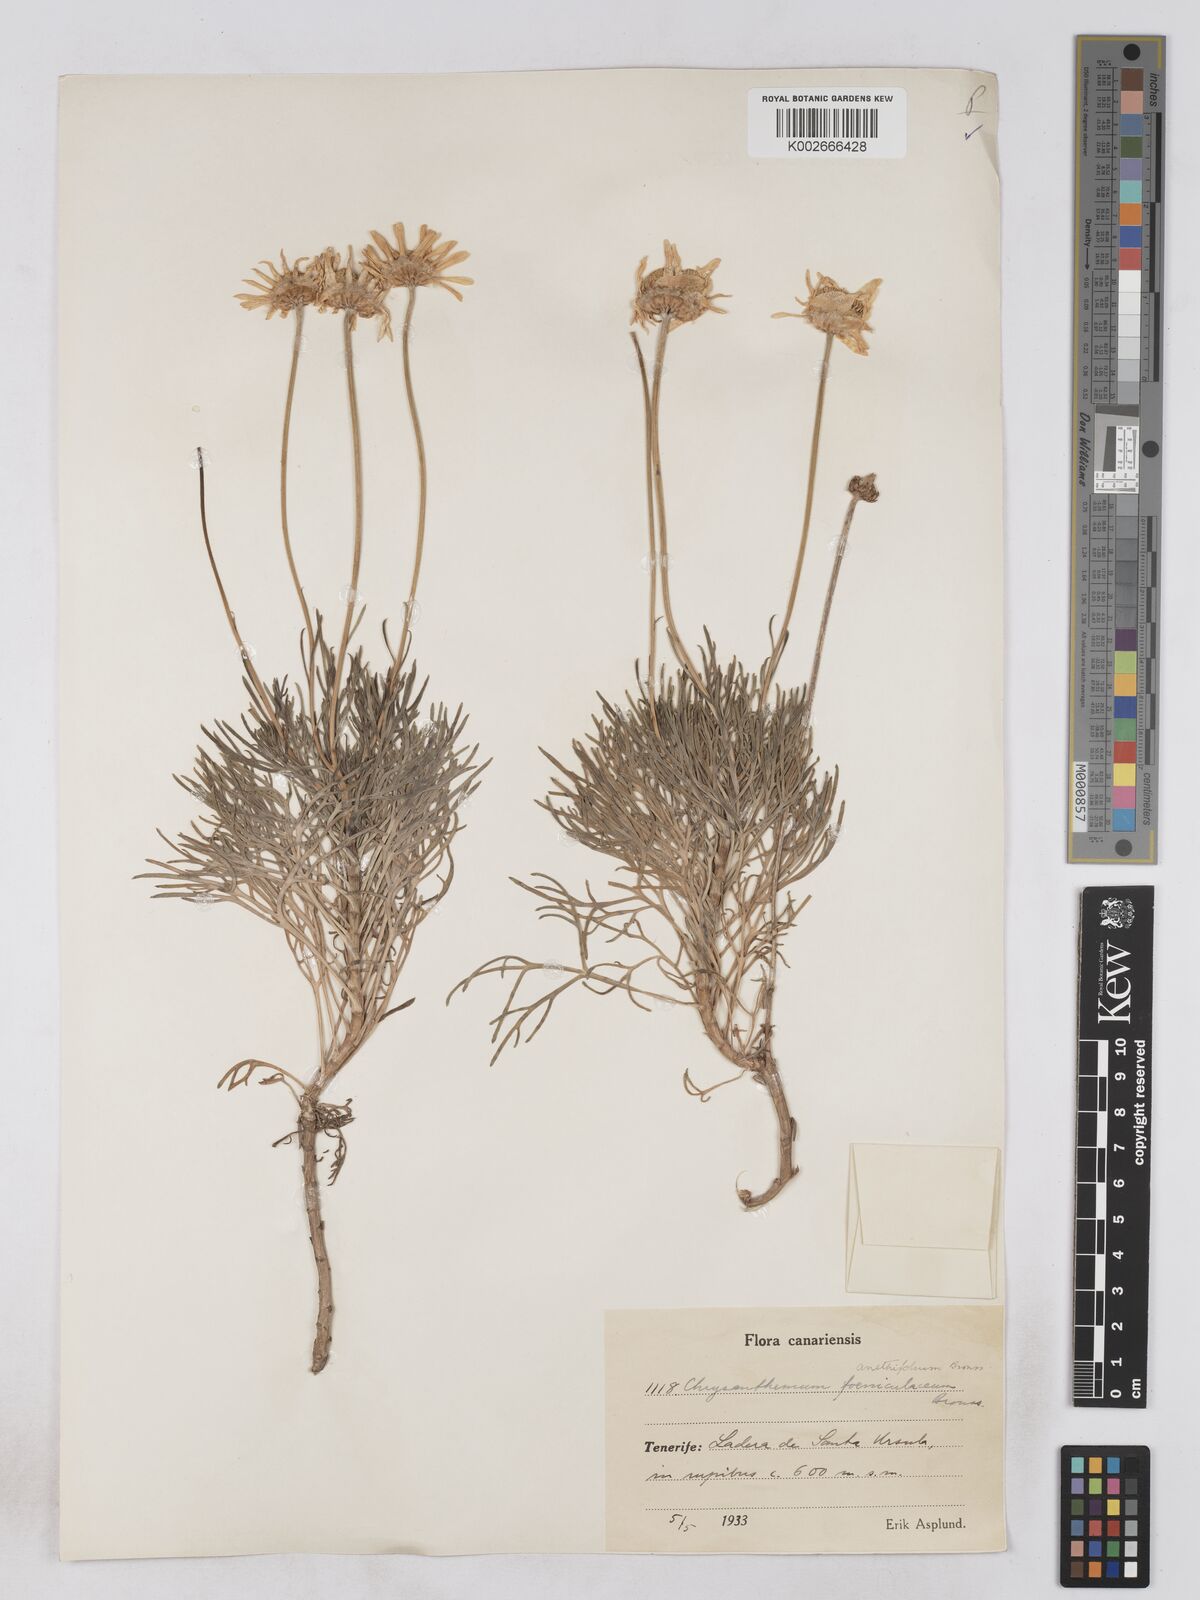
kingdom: Plantae
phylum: Tracheophyta
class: Magnoliopsida
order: Asterales
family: Asteraceae
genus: Argyranthemum
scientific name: Argyranthemum foeniculaceum
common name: Canary island marguerite
